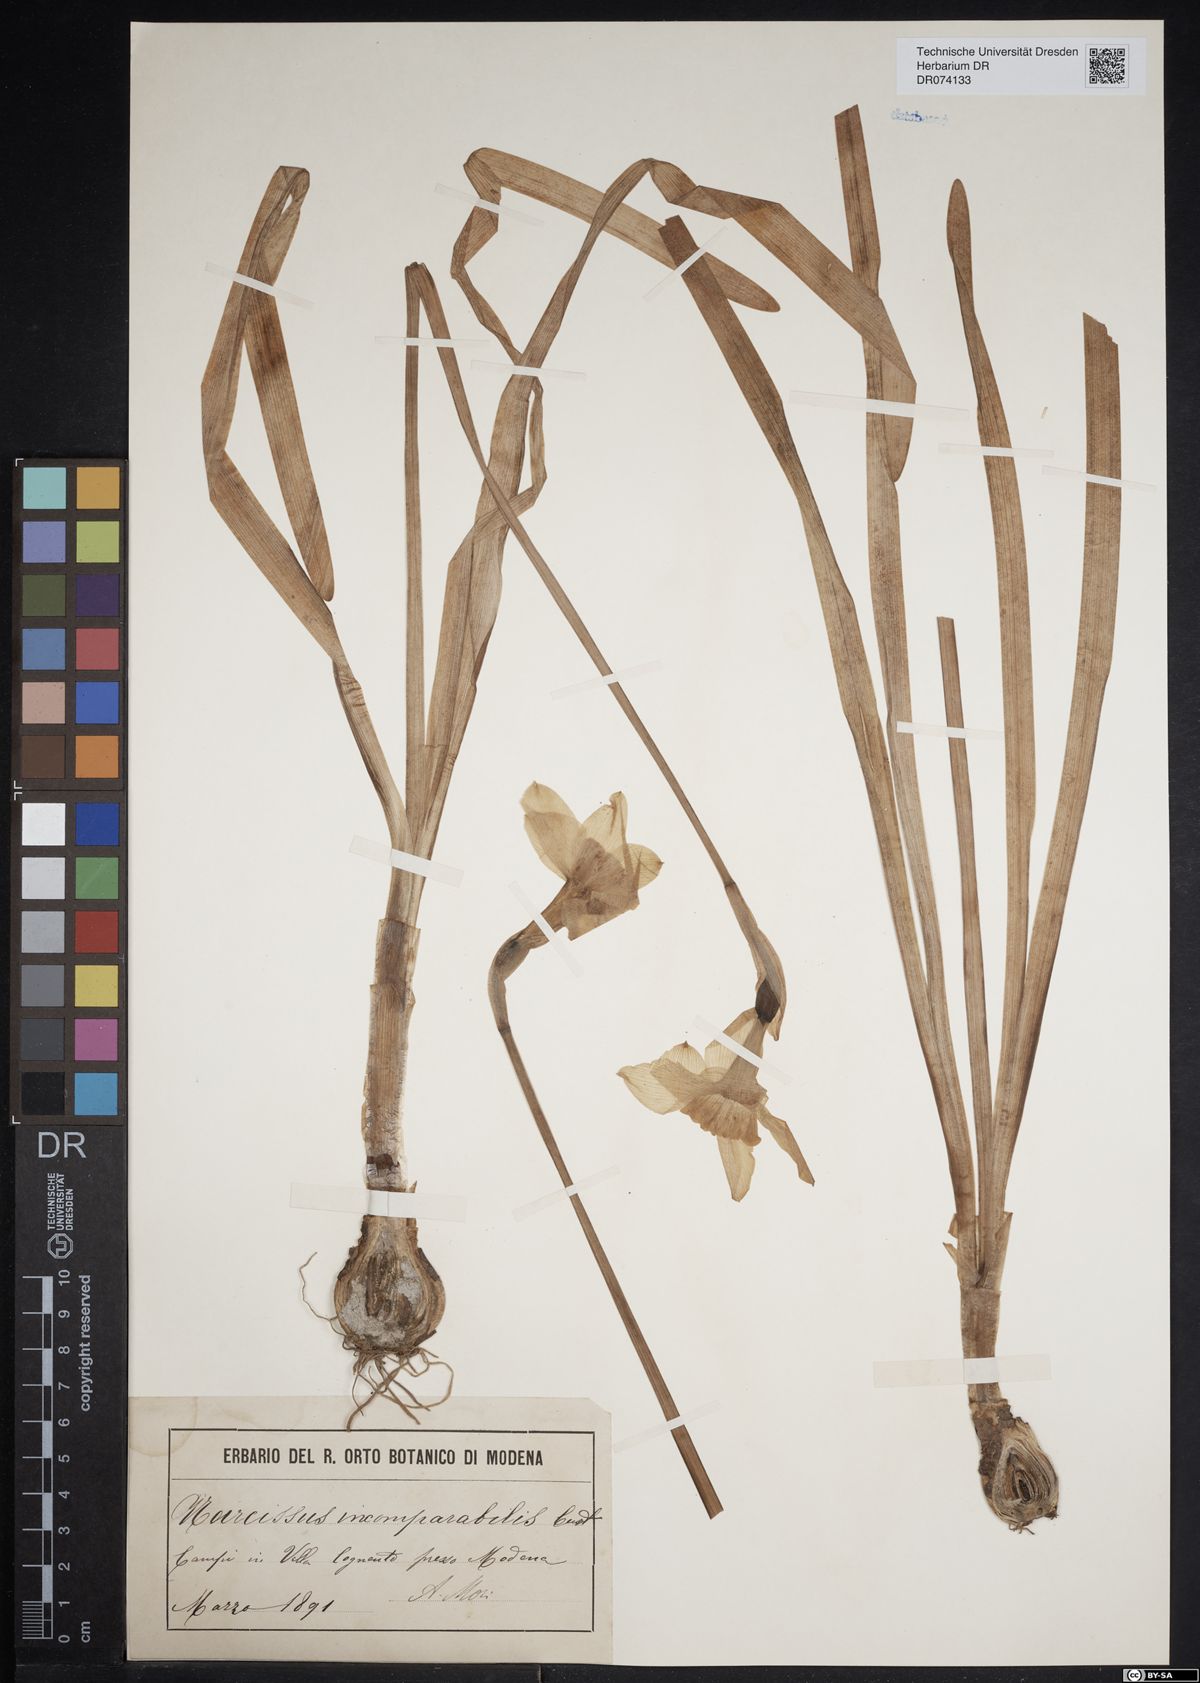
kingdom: Plantae
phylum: Tracheophyta
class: Liliopsida
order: Asparagales
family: Amaryllidaceae
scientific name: Amaryllidaceae
